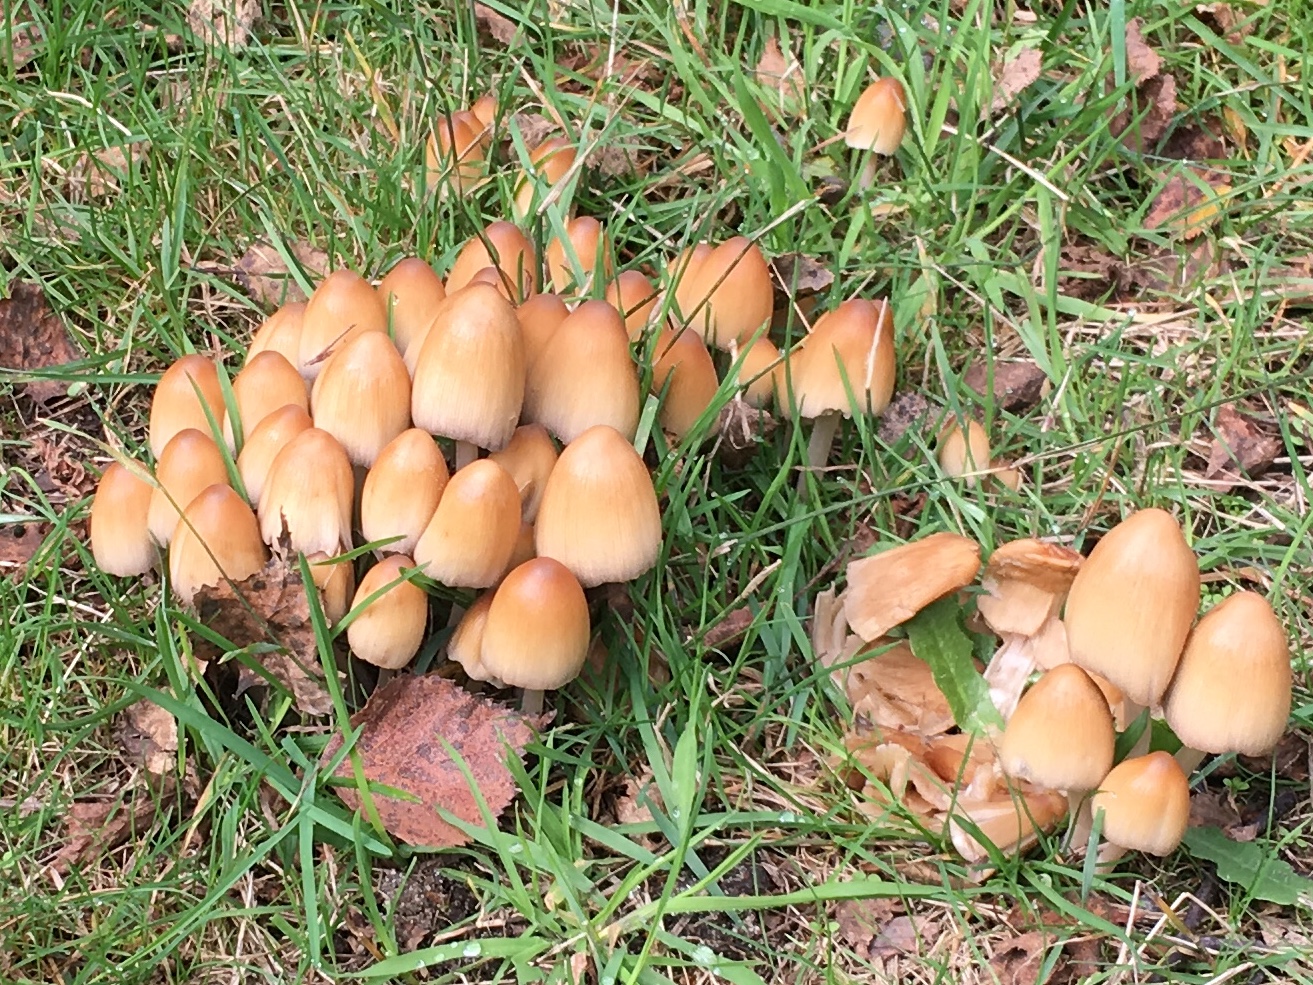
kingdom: Fungi
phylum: Basidiomycota
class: Agaricomycetes
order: Agaricales
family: Psathyrellaceae
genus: Coprinellus
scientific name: Coprinellus micaceus
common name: glimmer-blækhat
